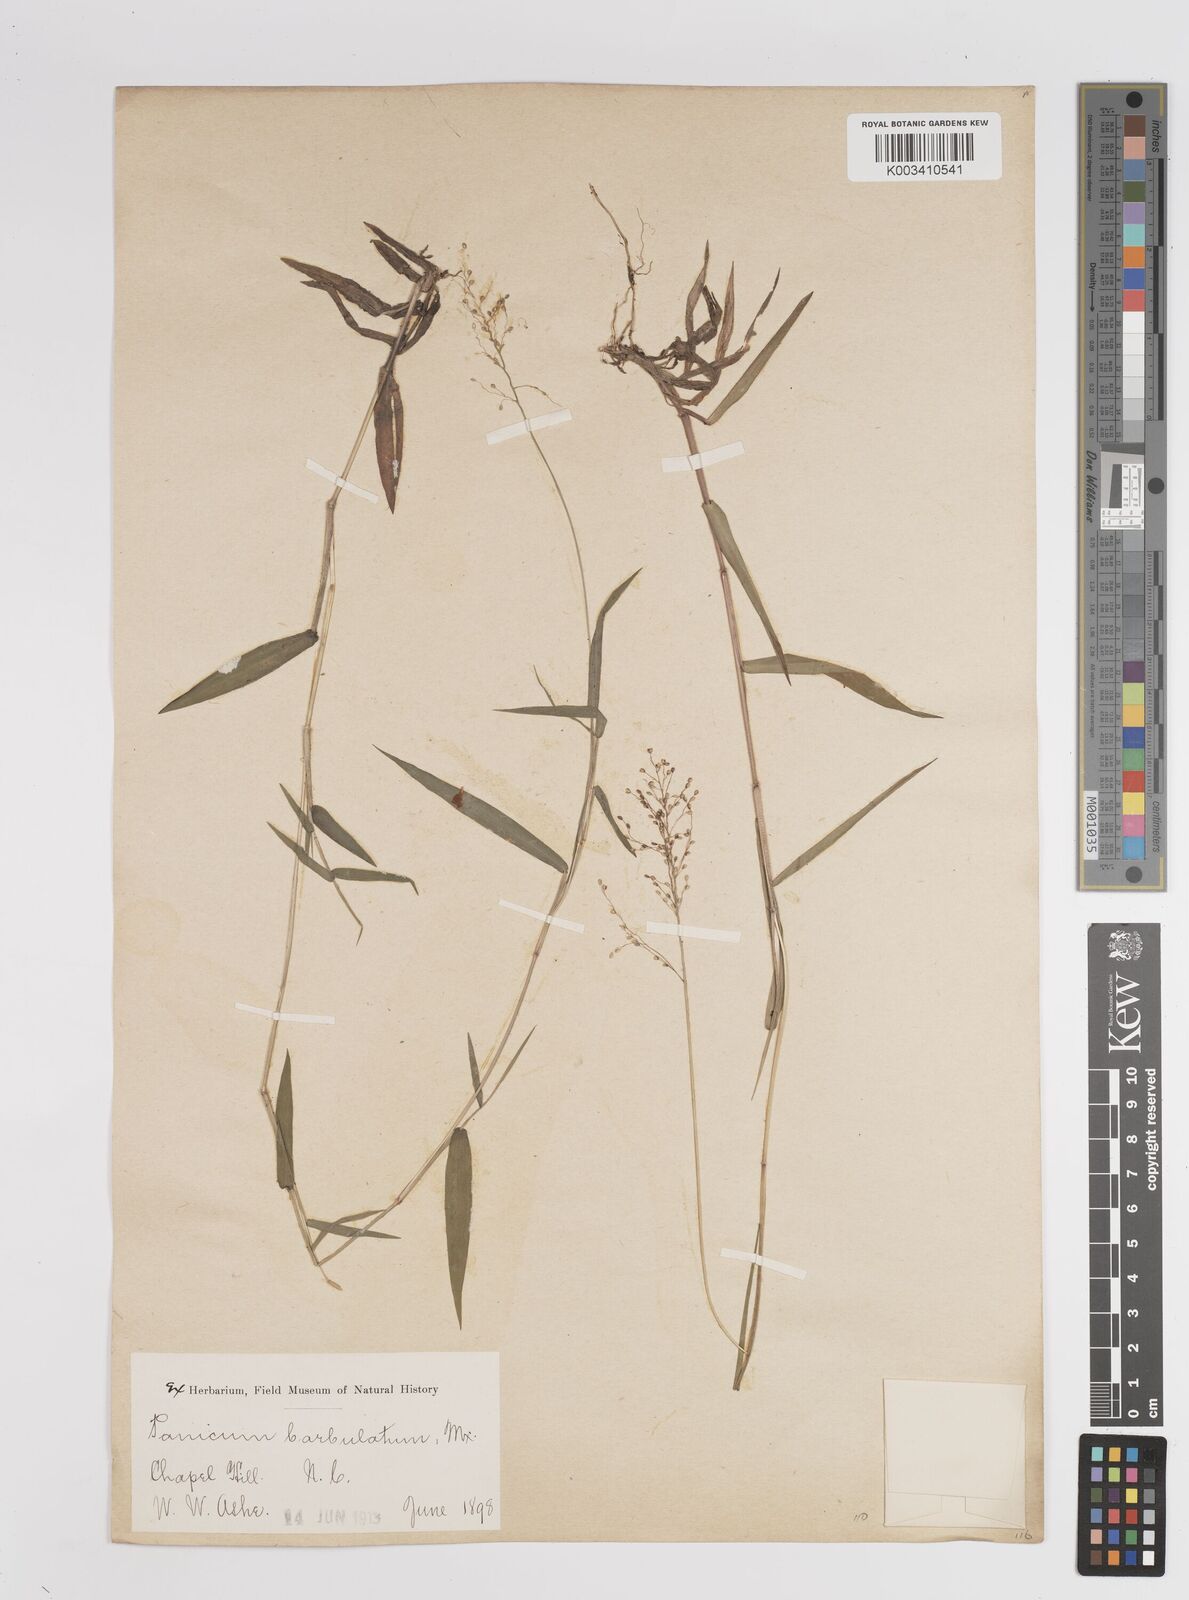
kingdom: Plantae
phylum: Tracheophyta
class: Liliopsida
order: Poales
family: Poaceae
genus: Dichanthelium
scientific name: Dichanthelium dichotomum
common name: Cypress panicgrass
